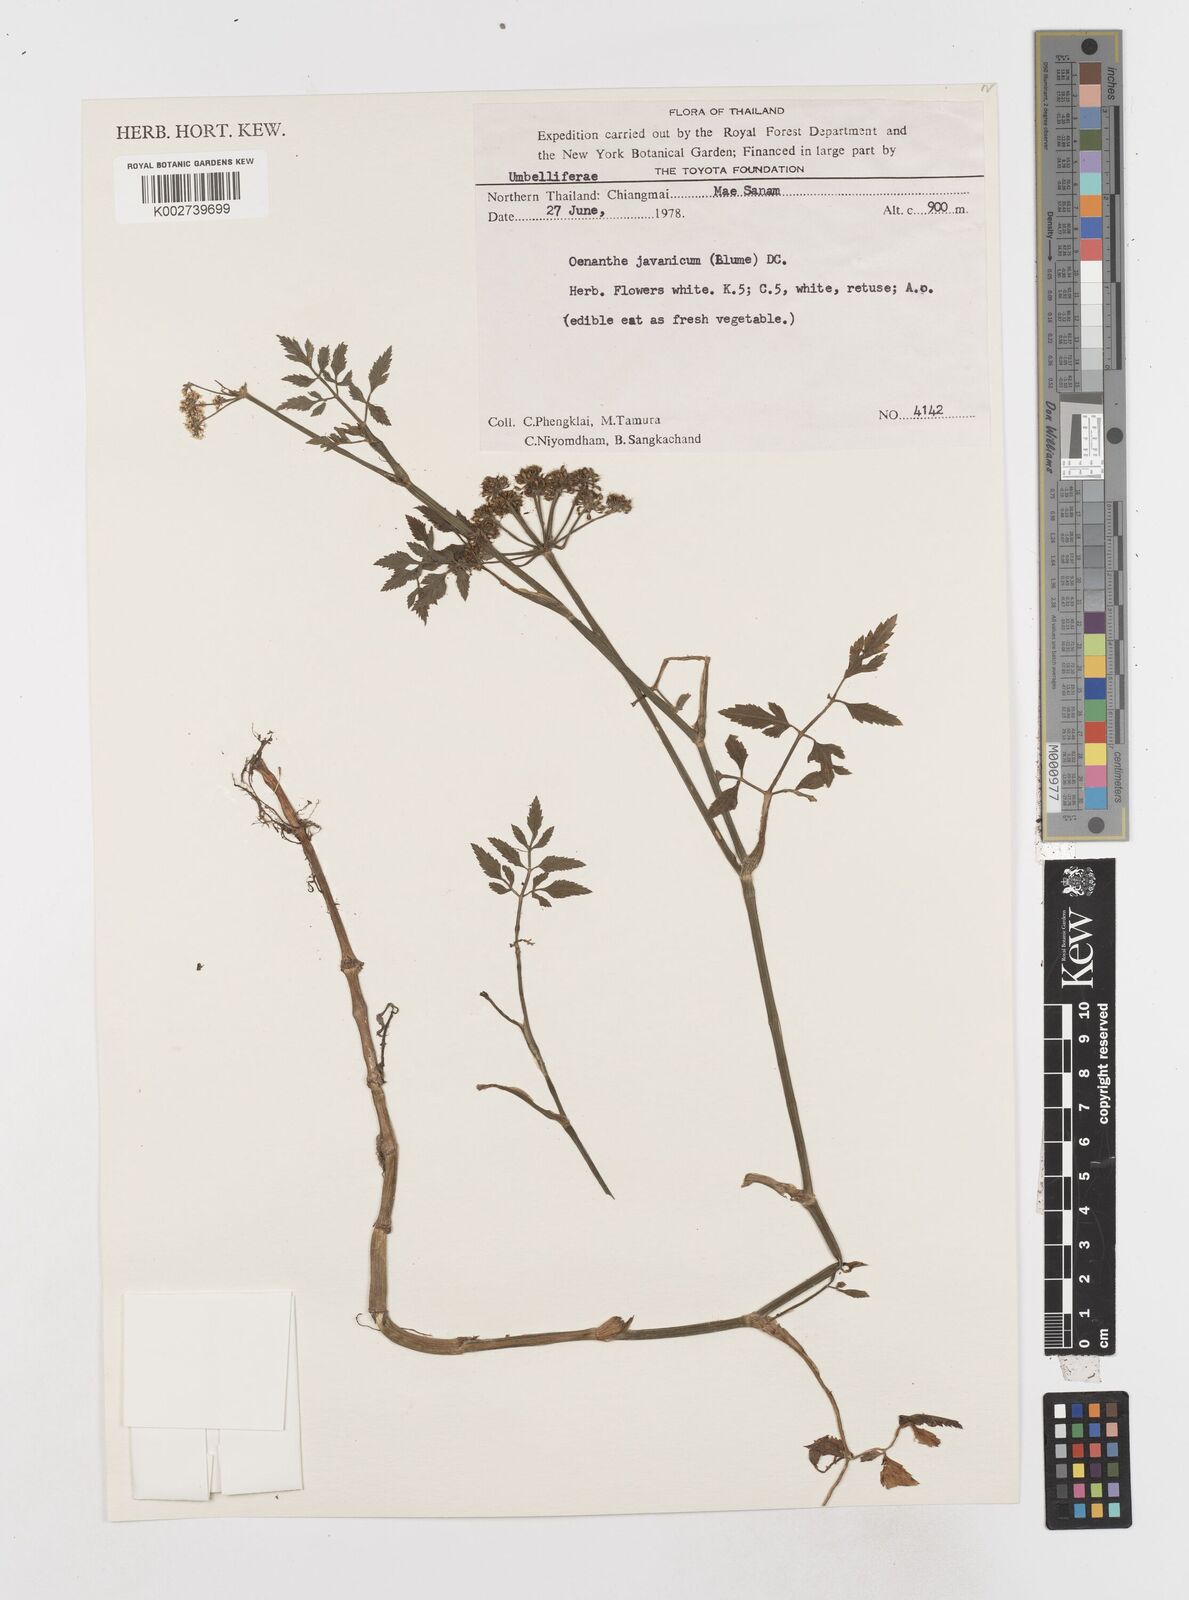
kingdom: Plantae
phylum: Tracheophyta
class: Magnoliopsida
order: Apiales
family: Apiaceae
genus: Oenanthe
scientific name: Oenanthe javanica
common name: Java water-dropwort
